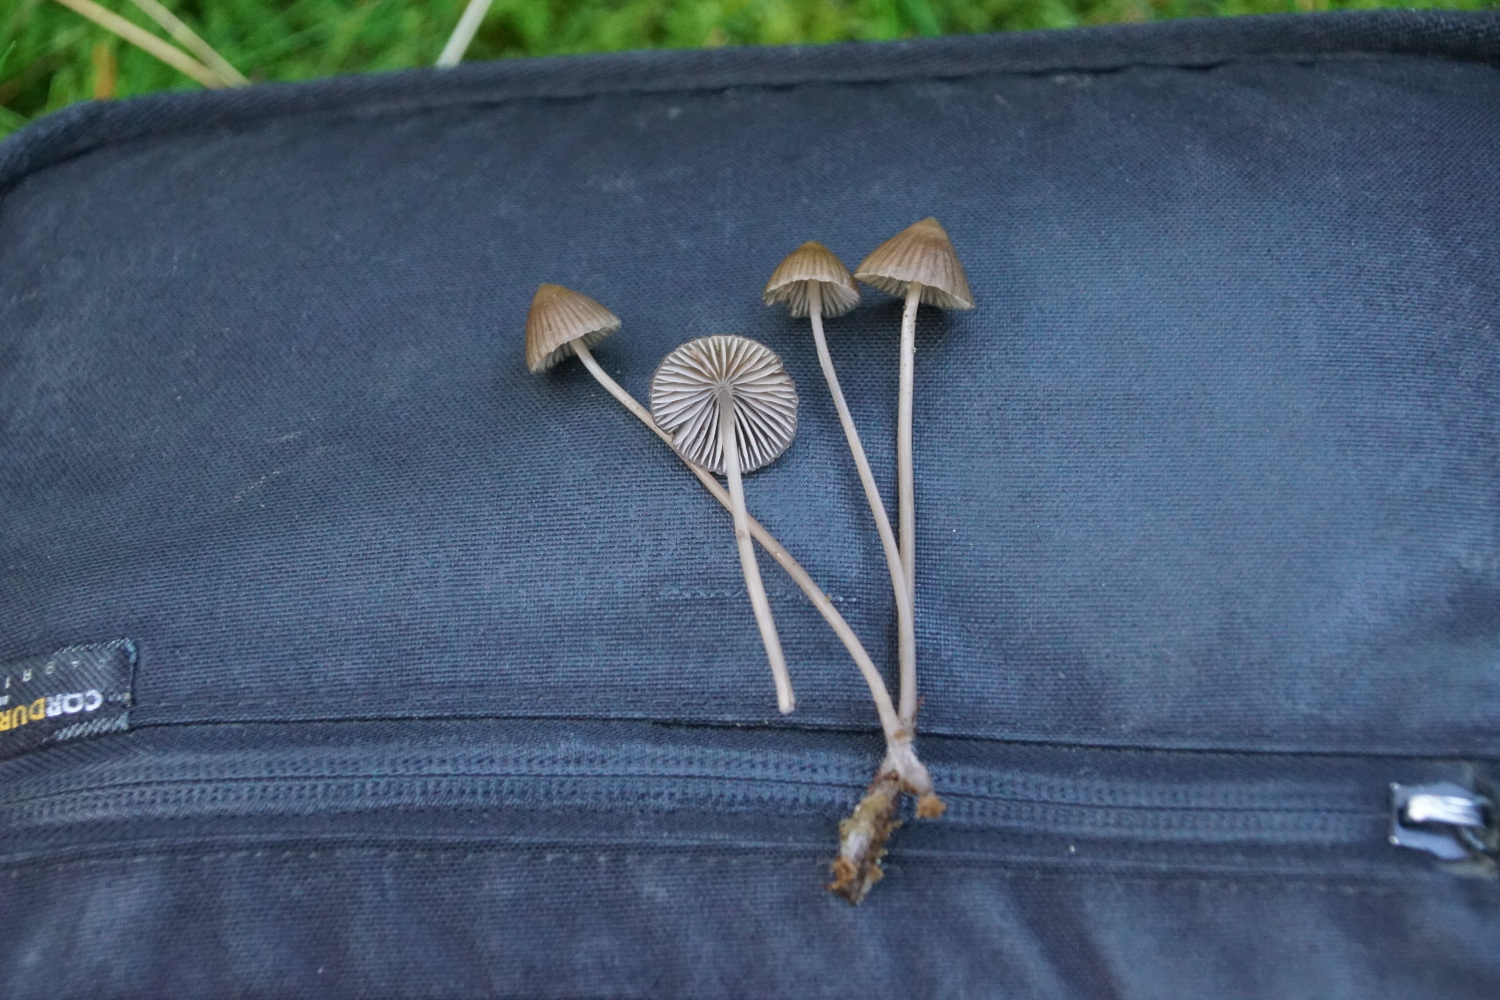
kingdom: Fungi
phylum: Basidiomycota
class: Agaricomycetes
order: Agaricales
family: Mycenaceae
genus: Mycena
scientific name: Mycena stipata
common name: stinkende huesvamp
